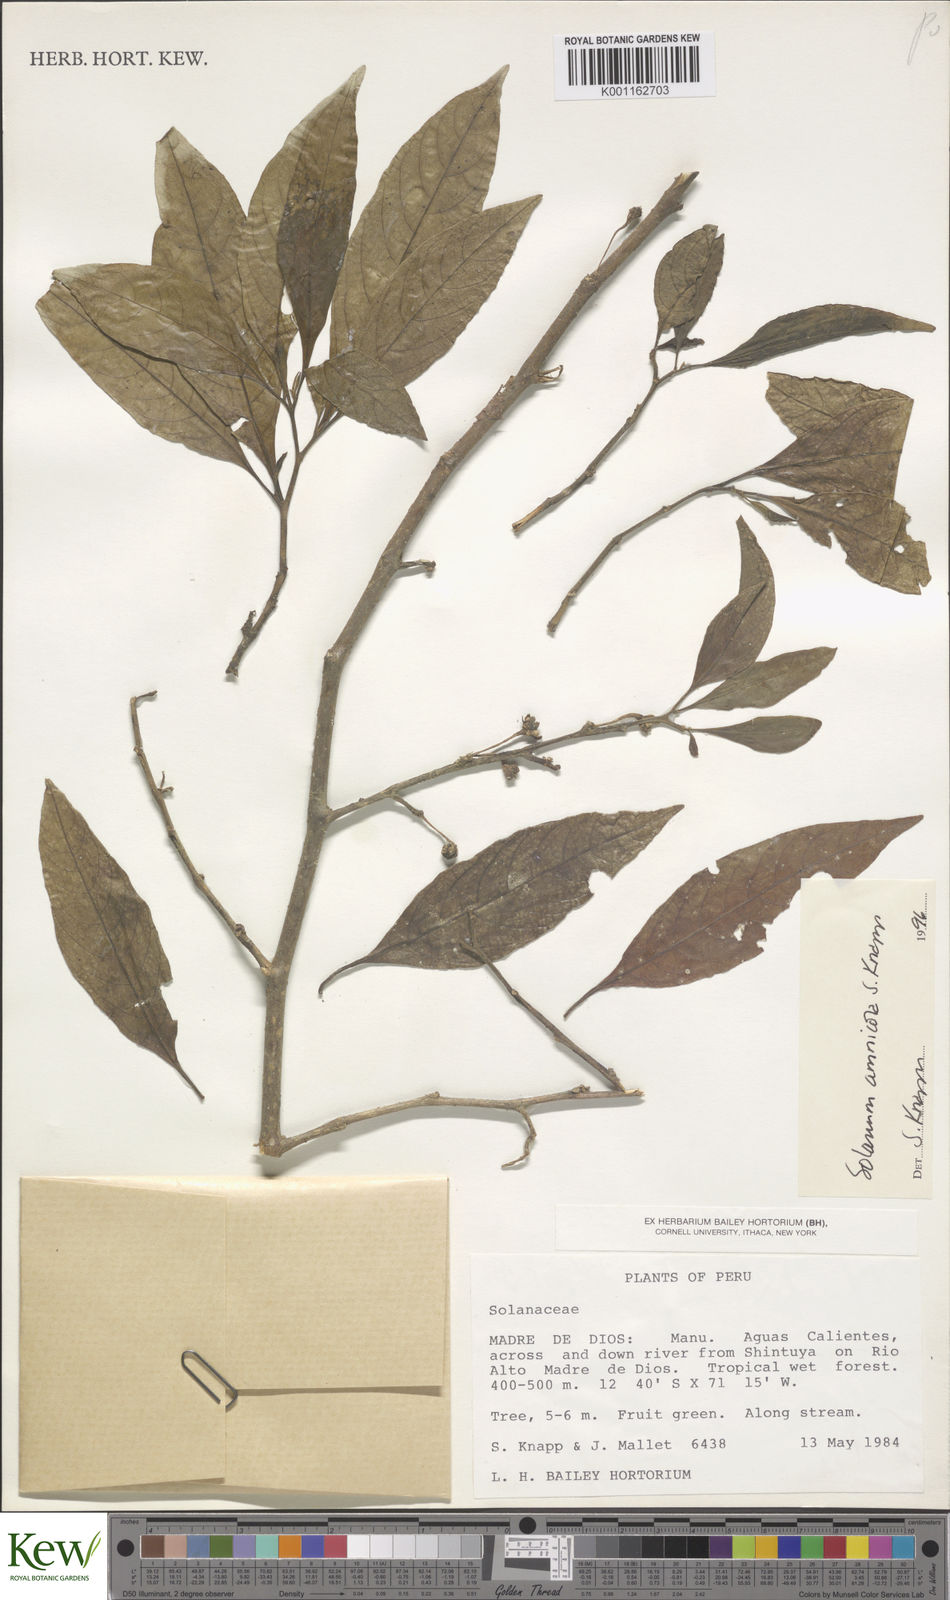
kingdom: Plantae
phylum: Tracheophyta
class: Magnoliopsida
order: Solanales
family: Solanaceae
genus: Solanum
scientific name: Solanum amnicola
